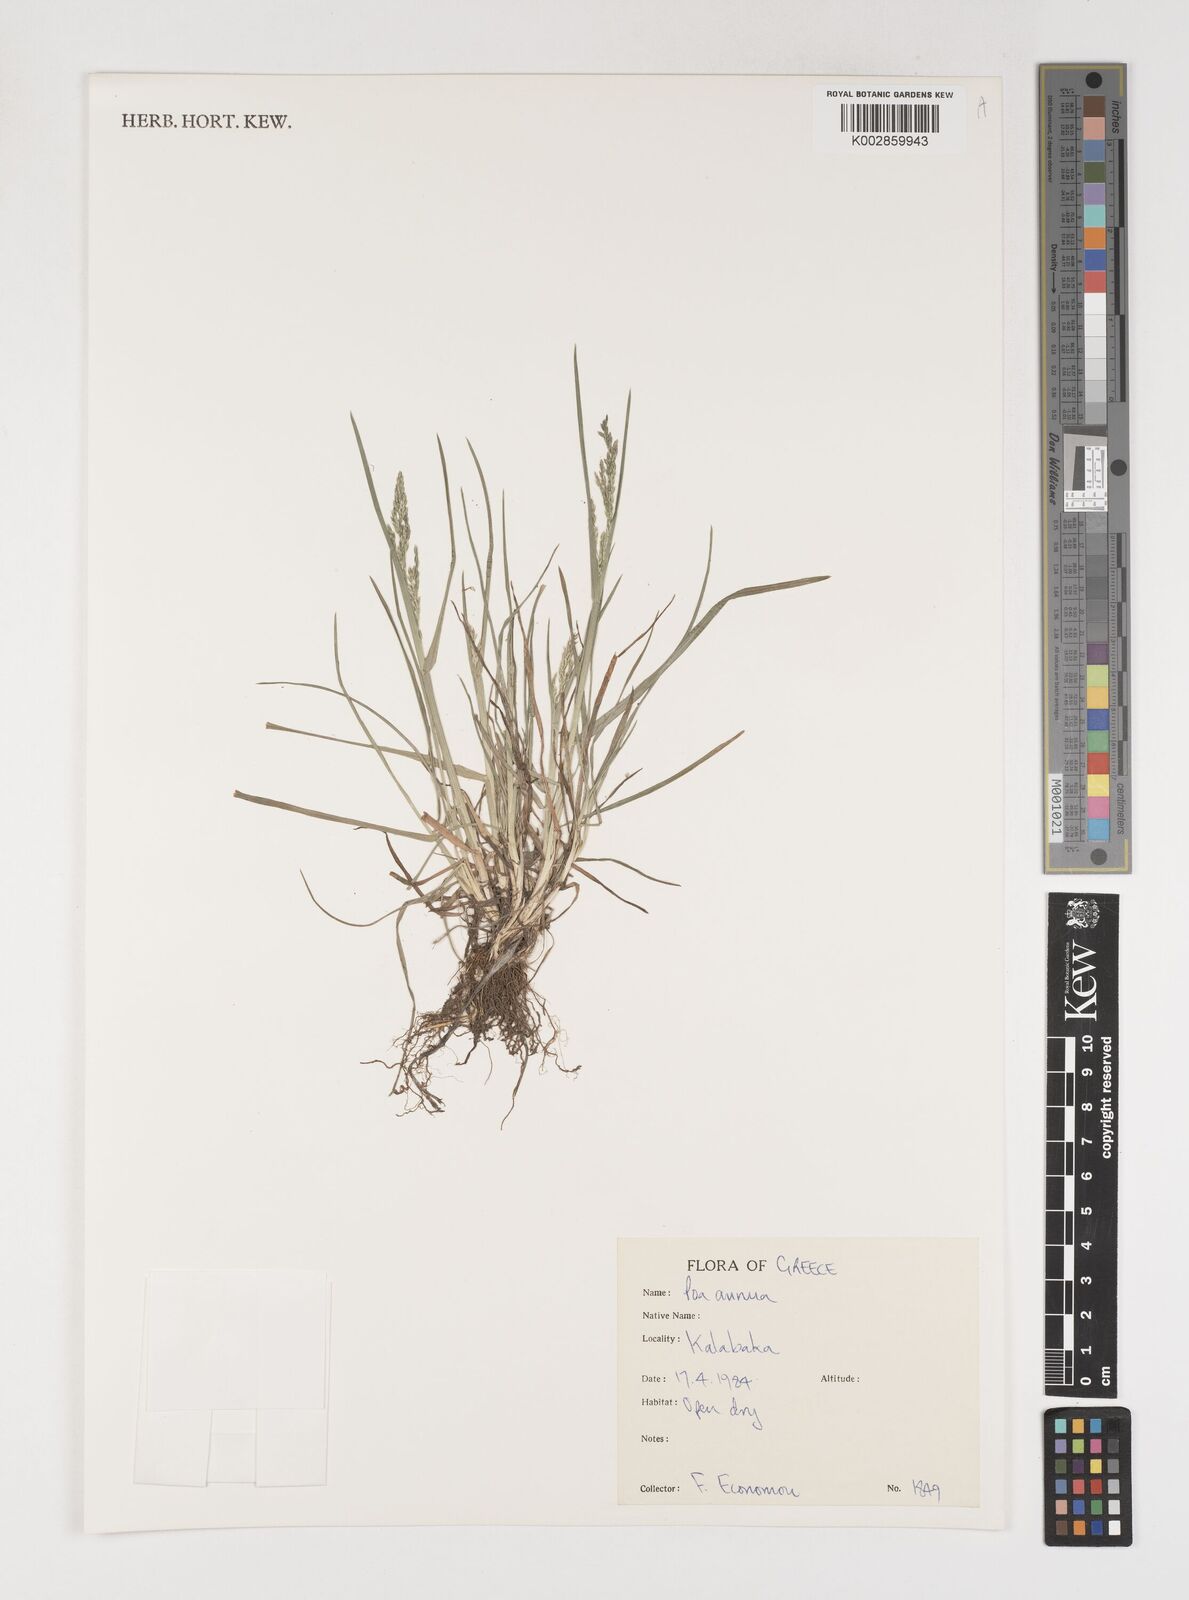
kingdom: Plantae
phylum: Tracheophyta
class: Liliopsida
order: Poales
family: Poaceae
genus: Poa
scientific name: Poa annua
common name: Annual bluegrass
